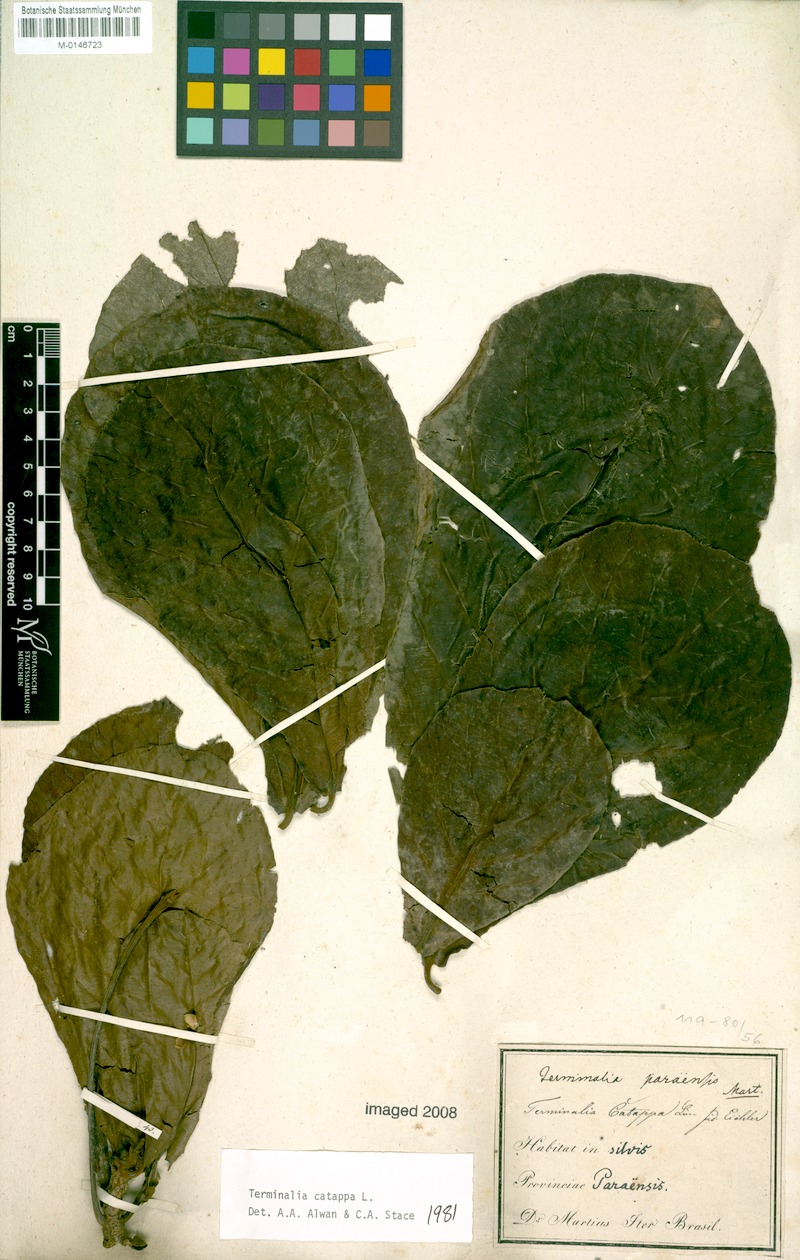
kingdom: Plantae
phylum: Tracheophyta
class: Magnoliopsida
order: Myrtales
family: Combretaceae
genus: Terminalia
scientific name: Terminalia catappa
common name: Tropical almond
